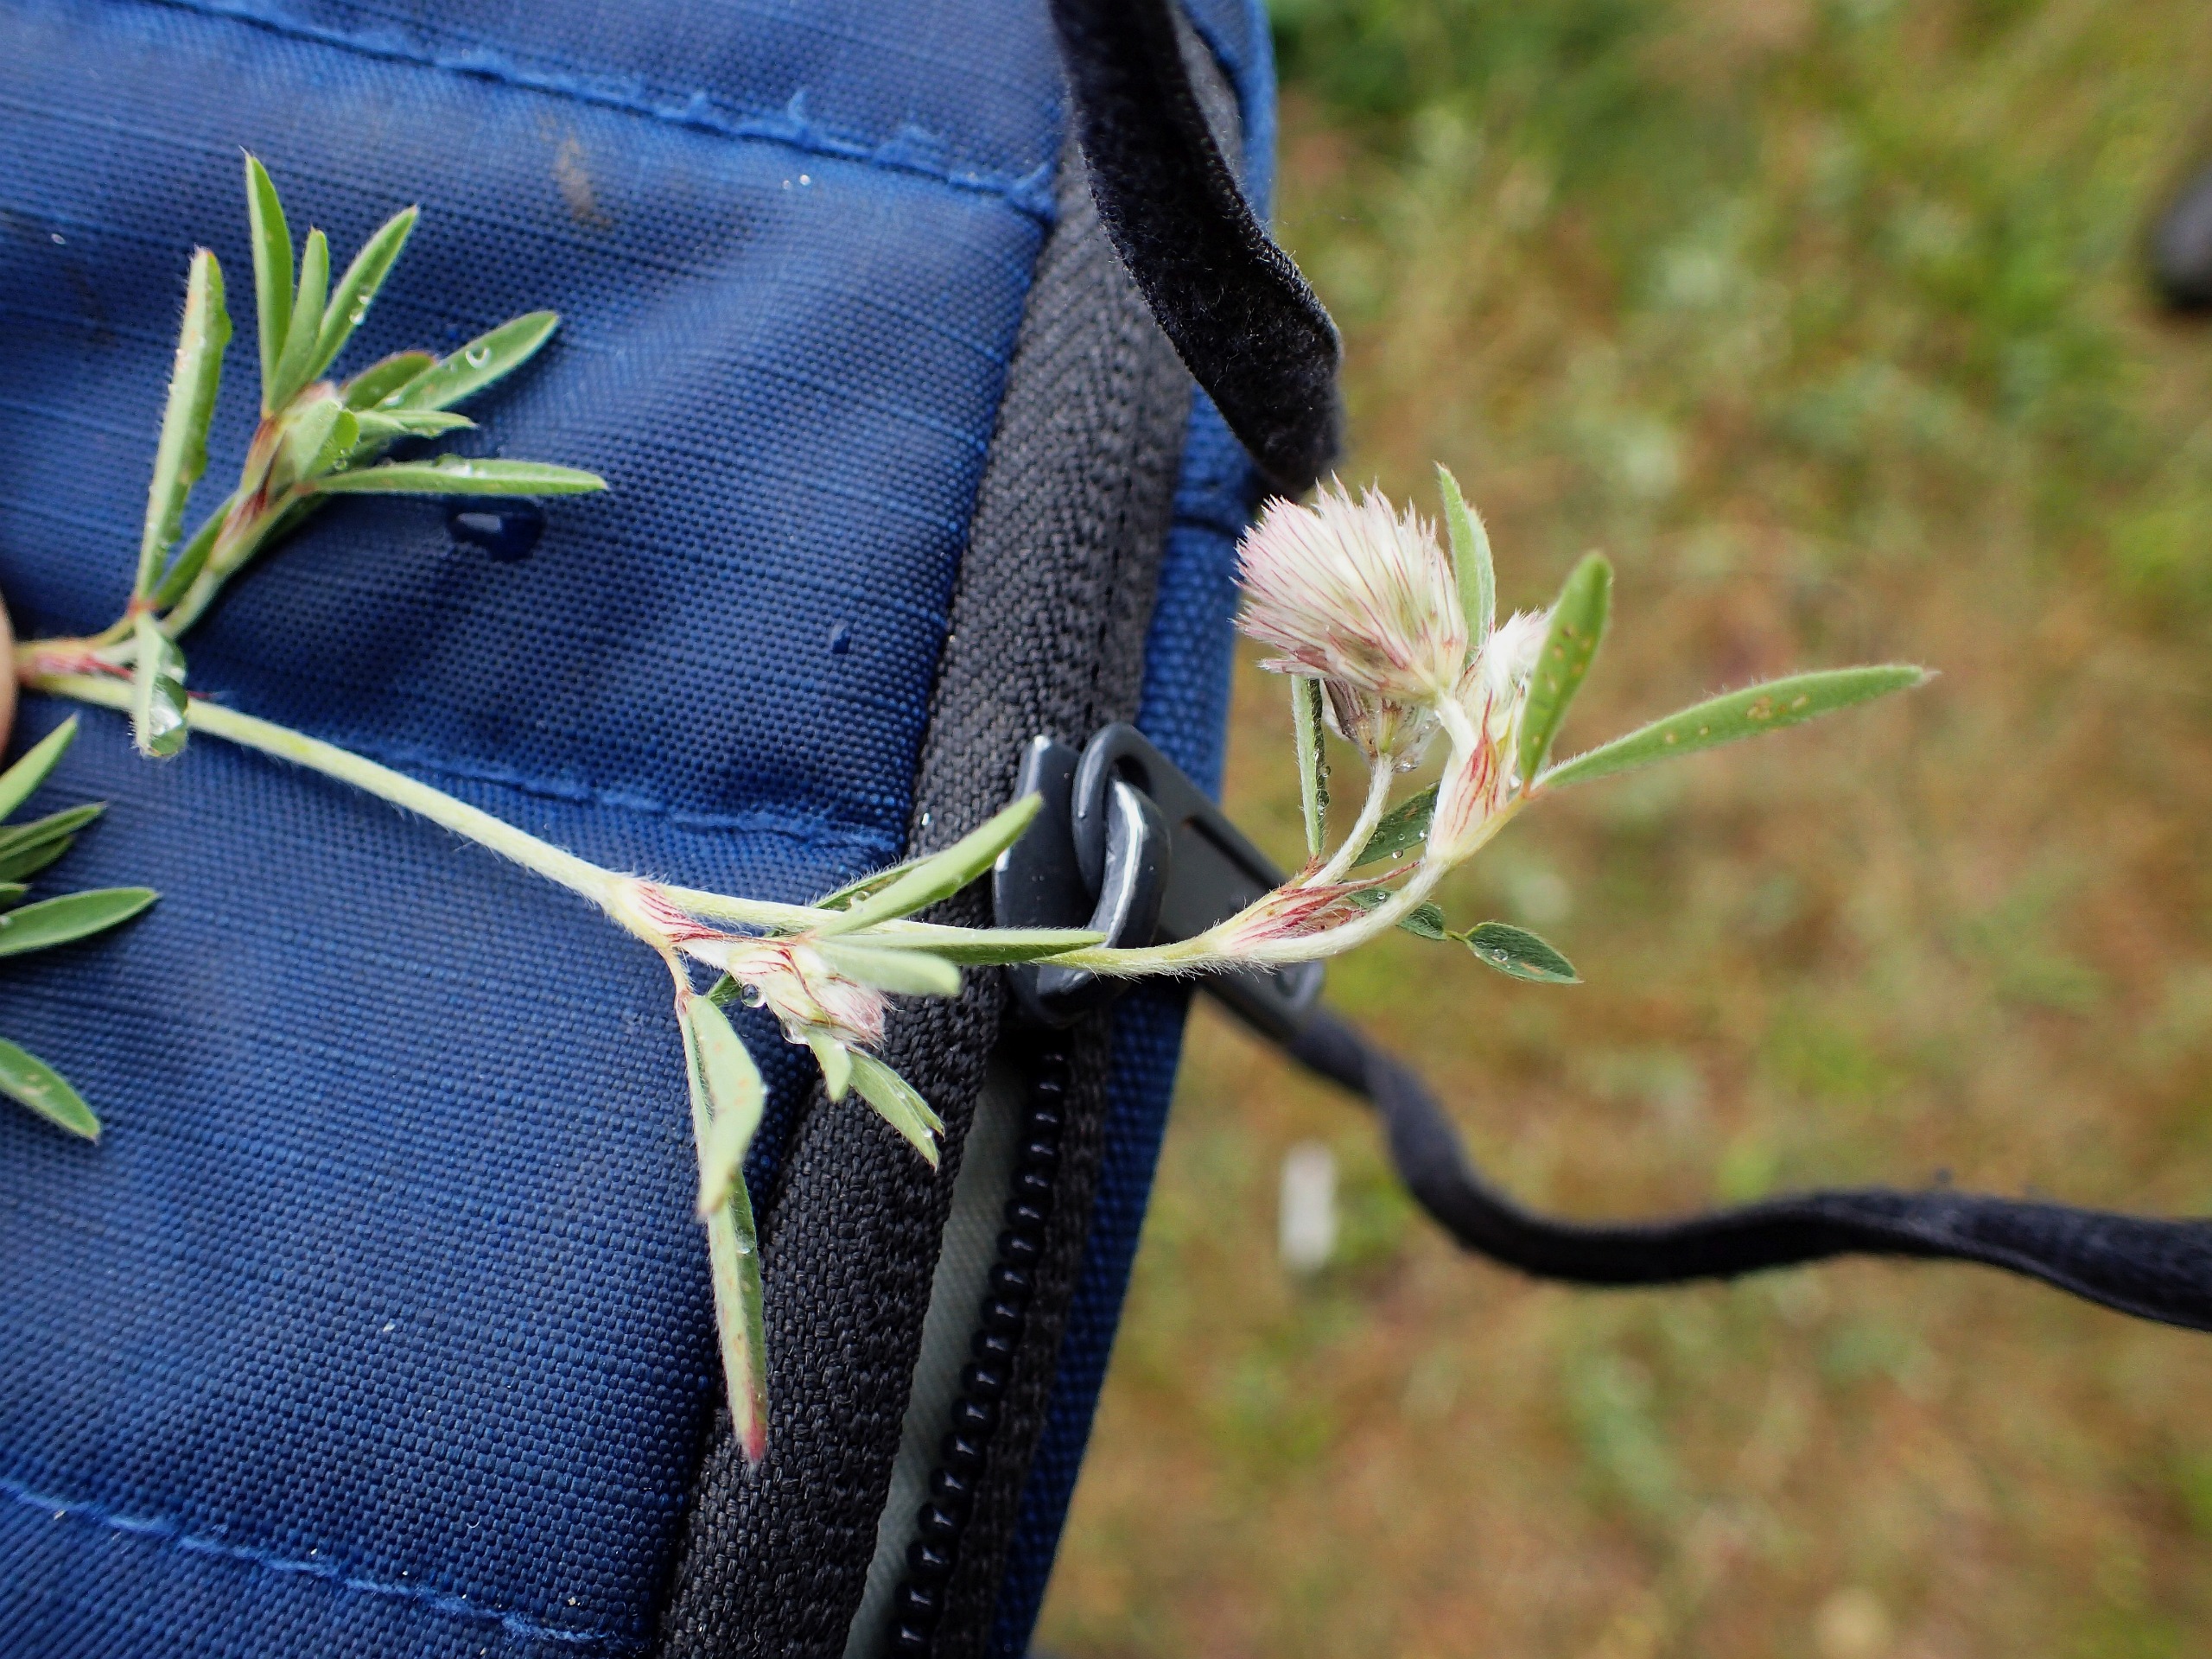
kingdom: Plantae
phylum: Tracheophyta
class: Magnoliopsida
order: Fabales
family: Fabaceae
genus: Trifolium
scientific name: Trifolium arvense
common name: Hare-kløver
